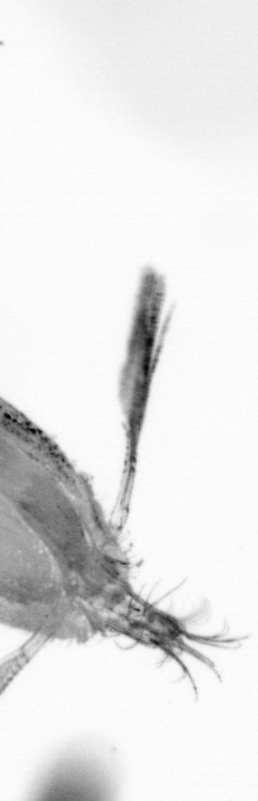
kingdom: Animalia
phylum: Arthropoda
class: Copepoda
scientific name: Copepoda
